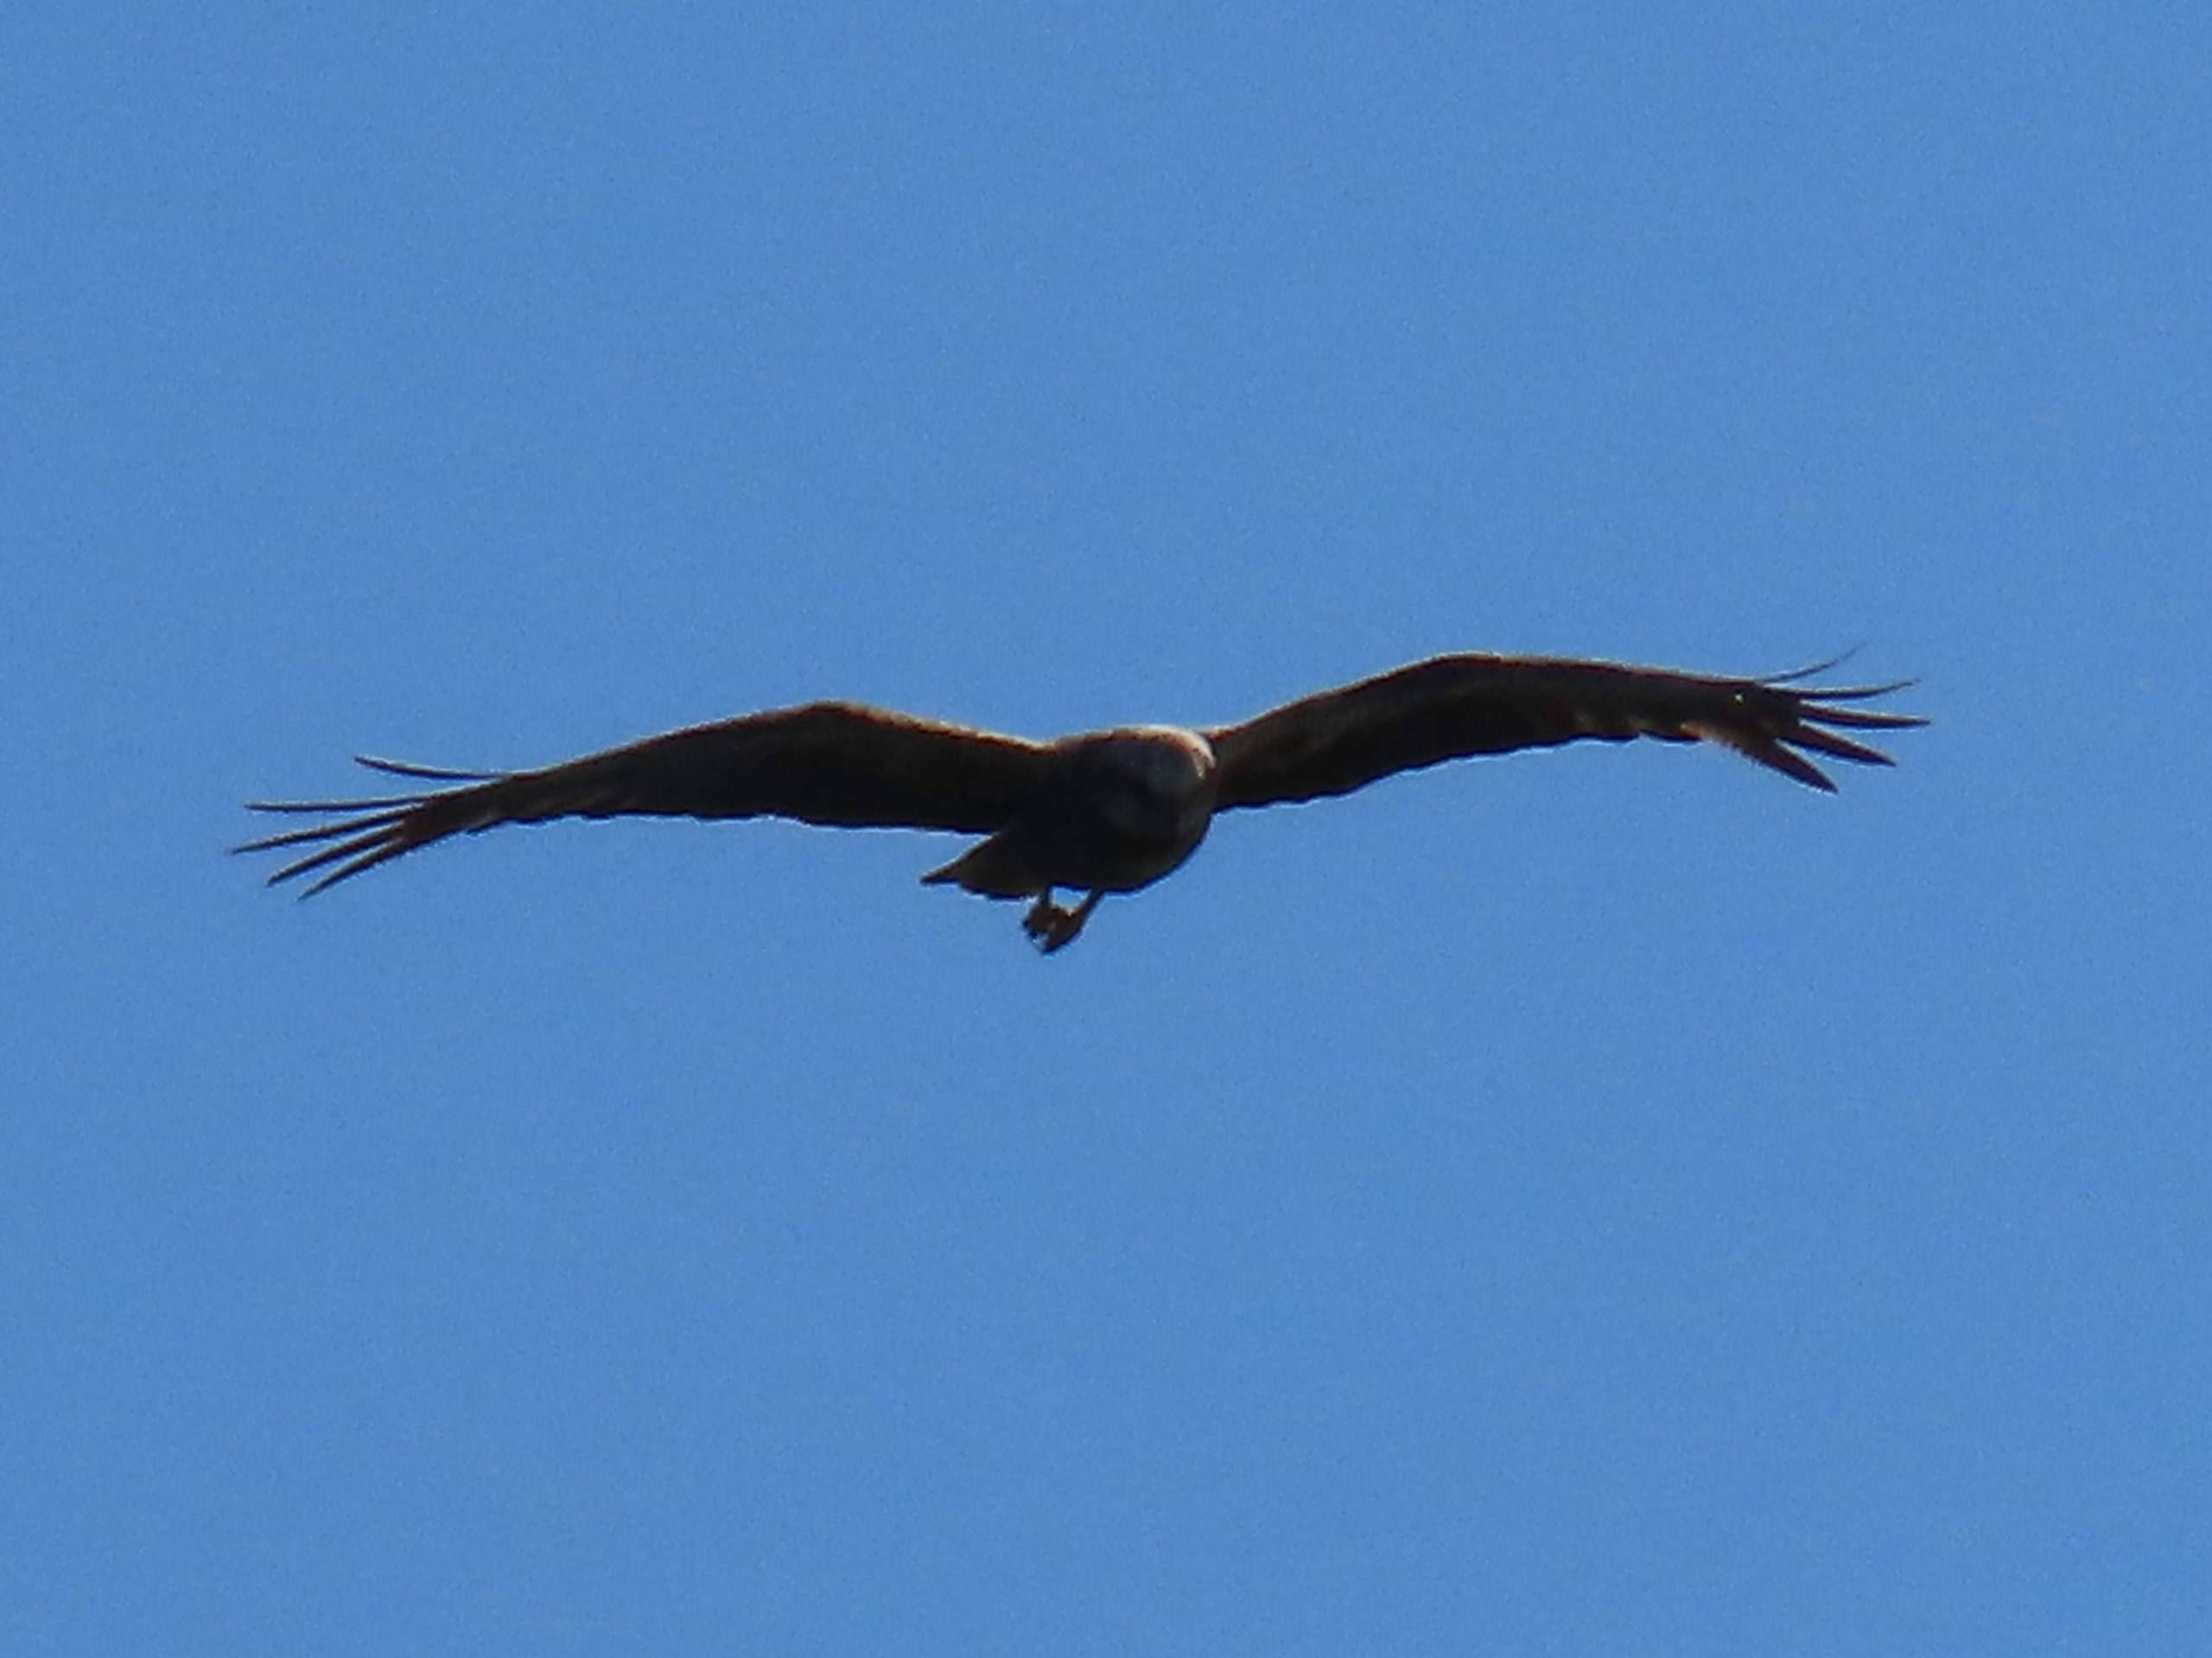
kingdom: Animalia
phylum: Chordata
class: Aves
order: Accipitriformes
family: Accipitridae
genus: Circus
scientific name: Circus aeruginosus
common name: Rørhøg
